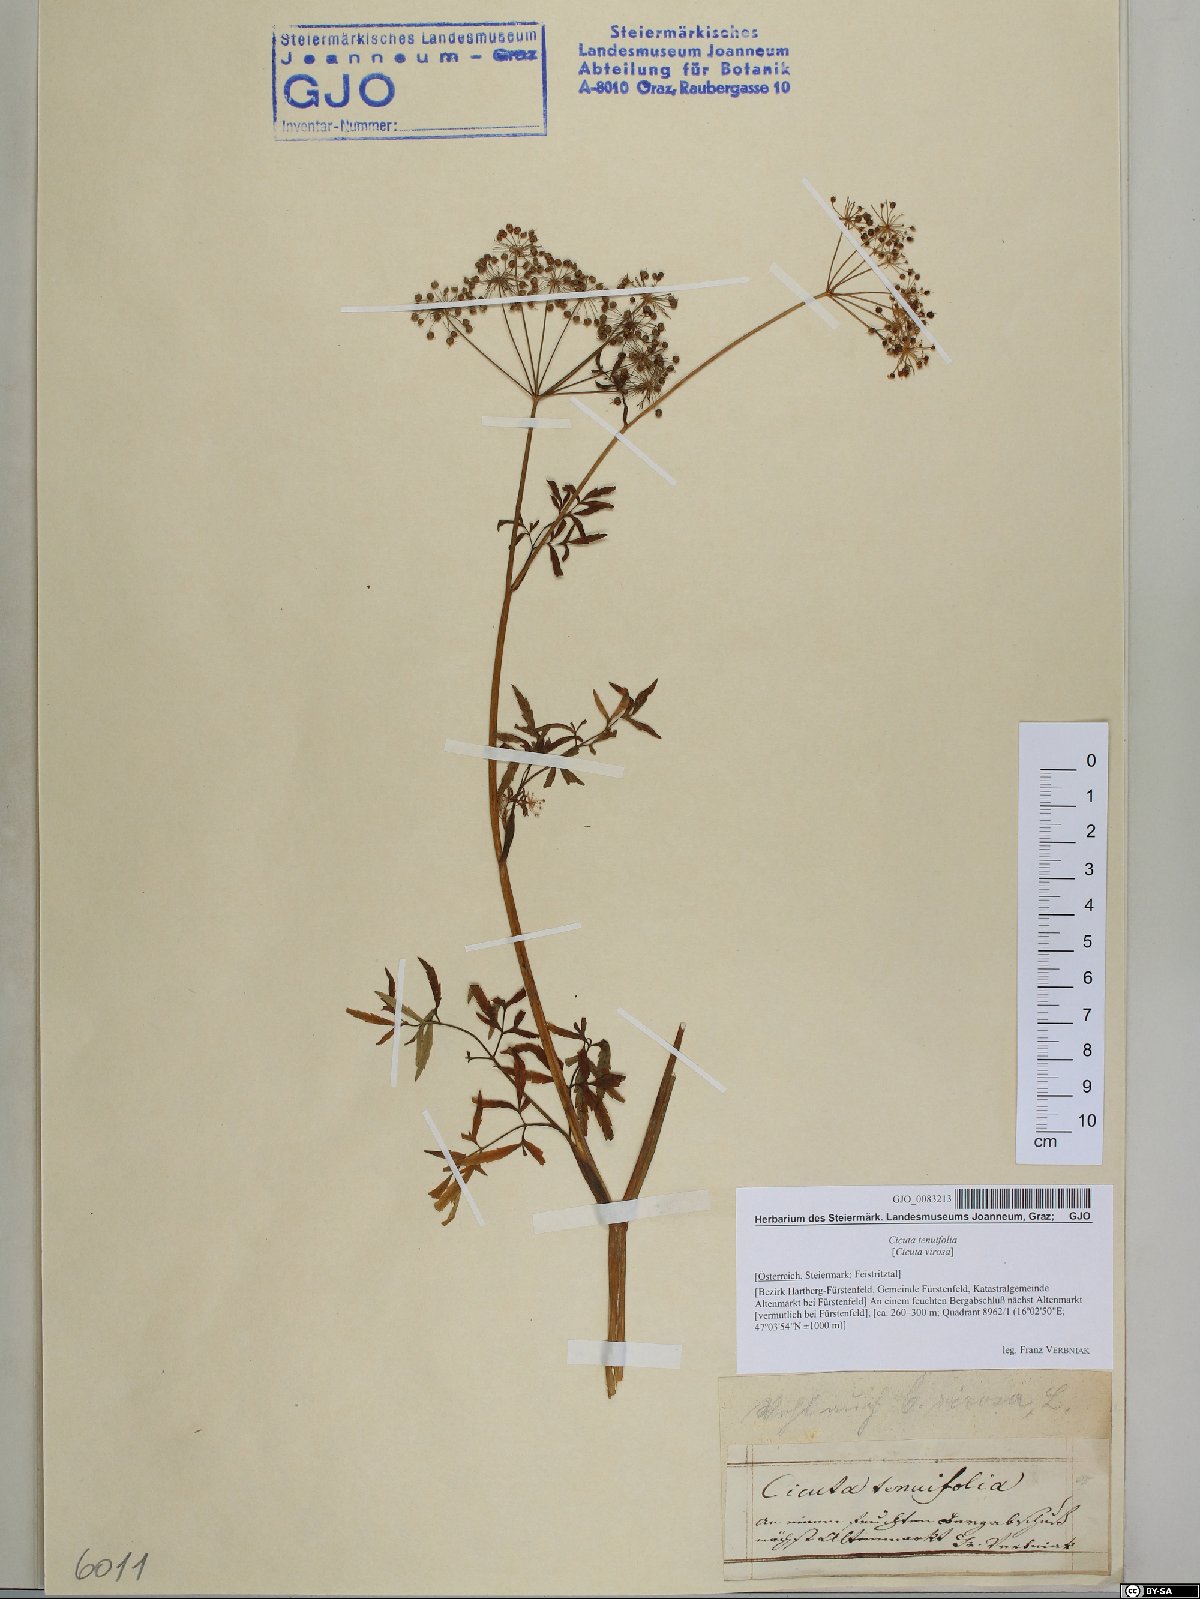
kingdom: Plantae
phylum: Tracheophyta
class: Magnoliopsida
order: Apiales
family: Apiaceae
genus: Cicuta
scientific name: Cicuta virosa
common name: Cowbane
